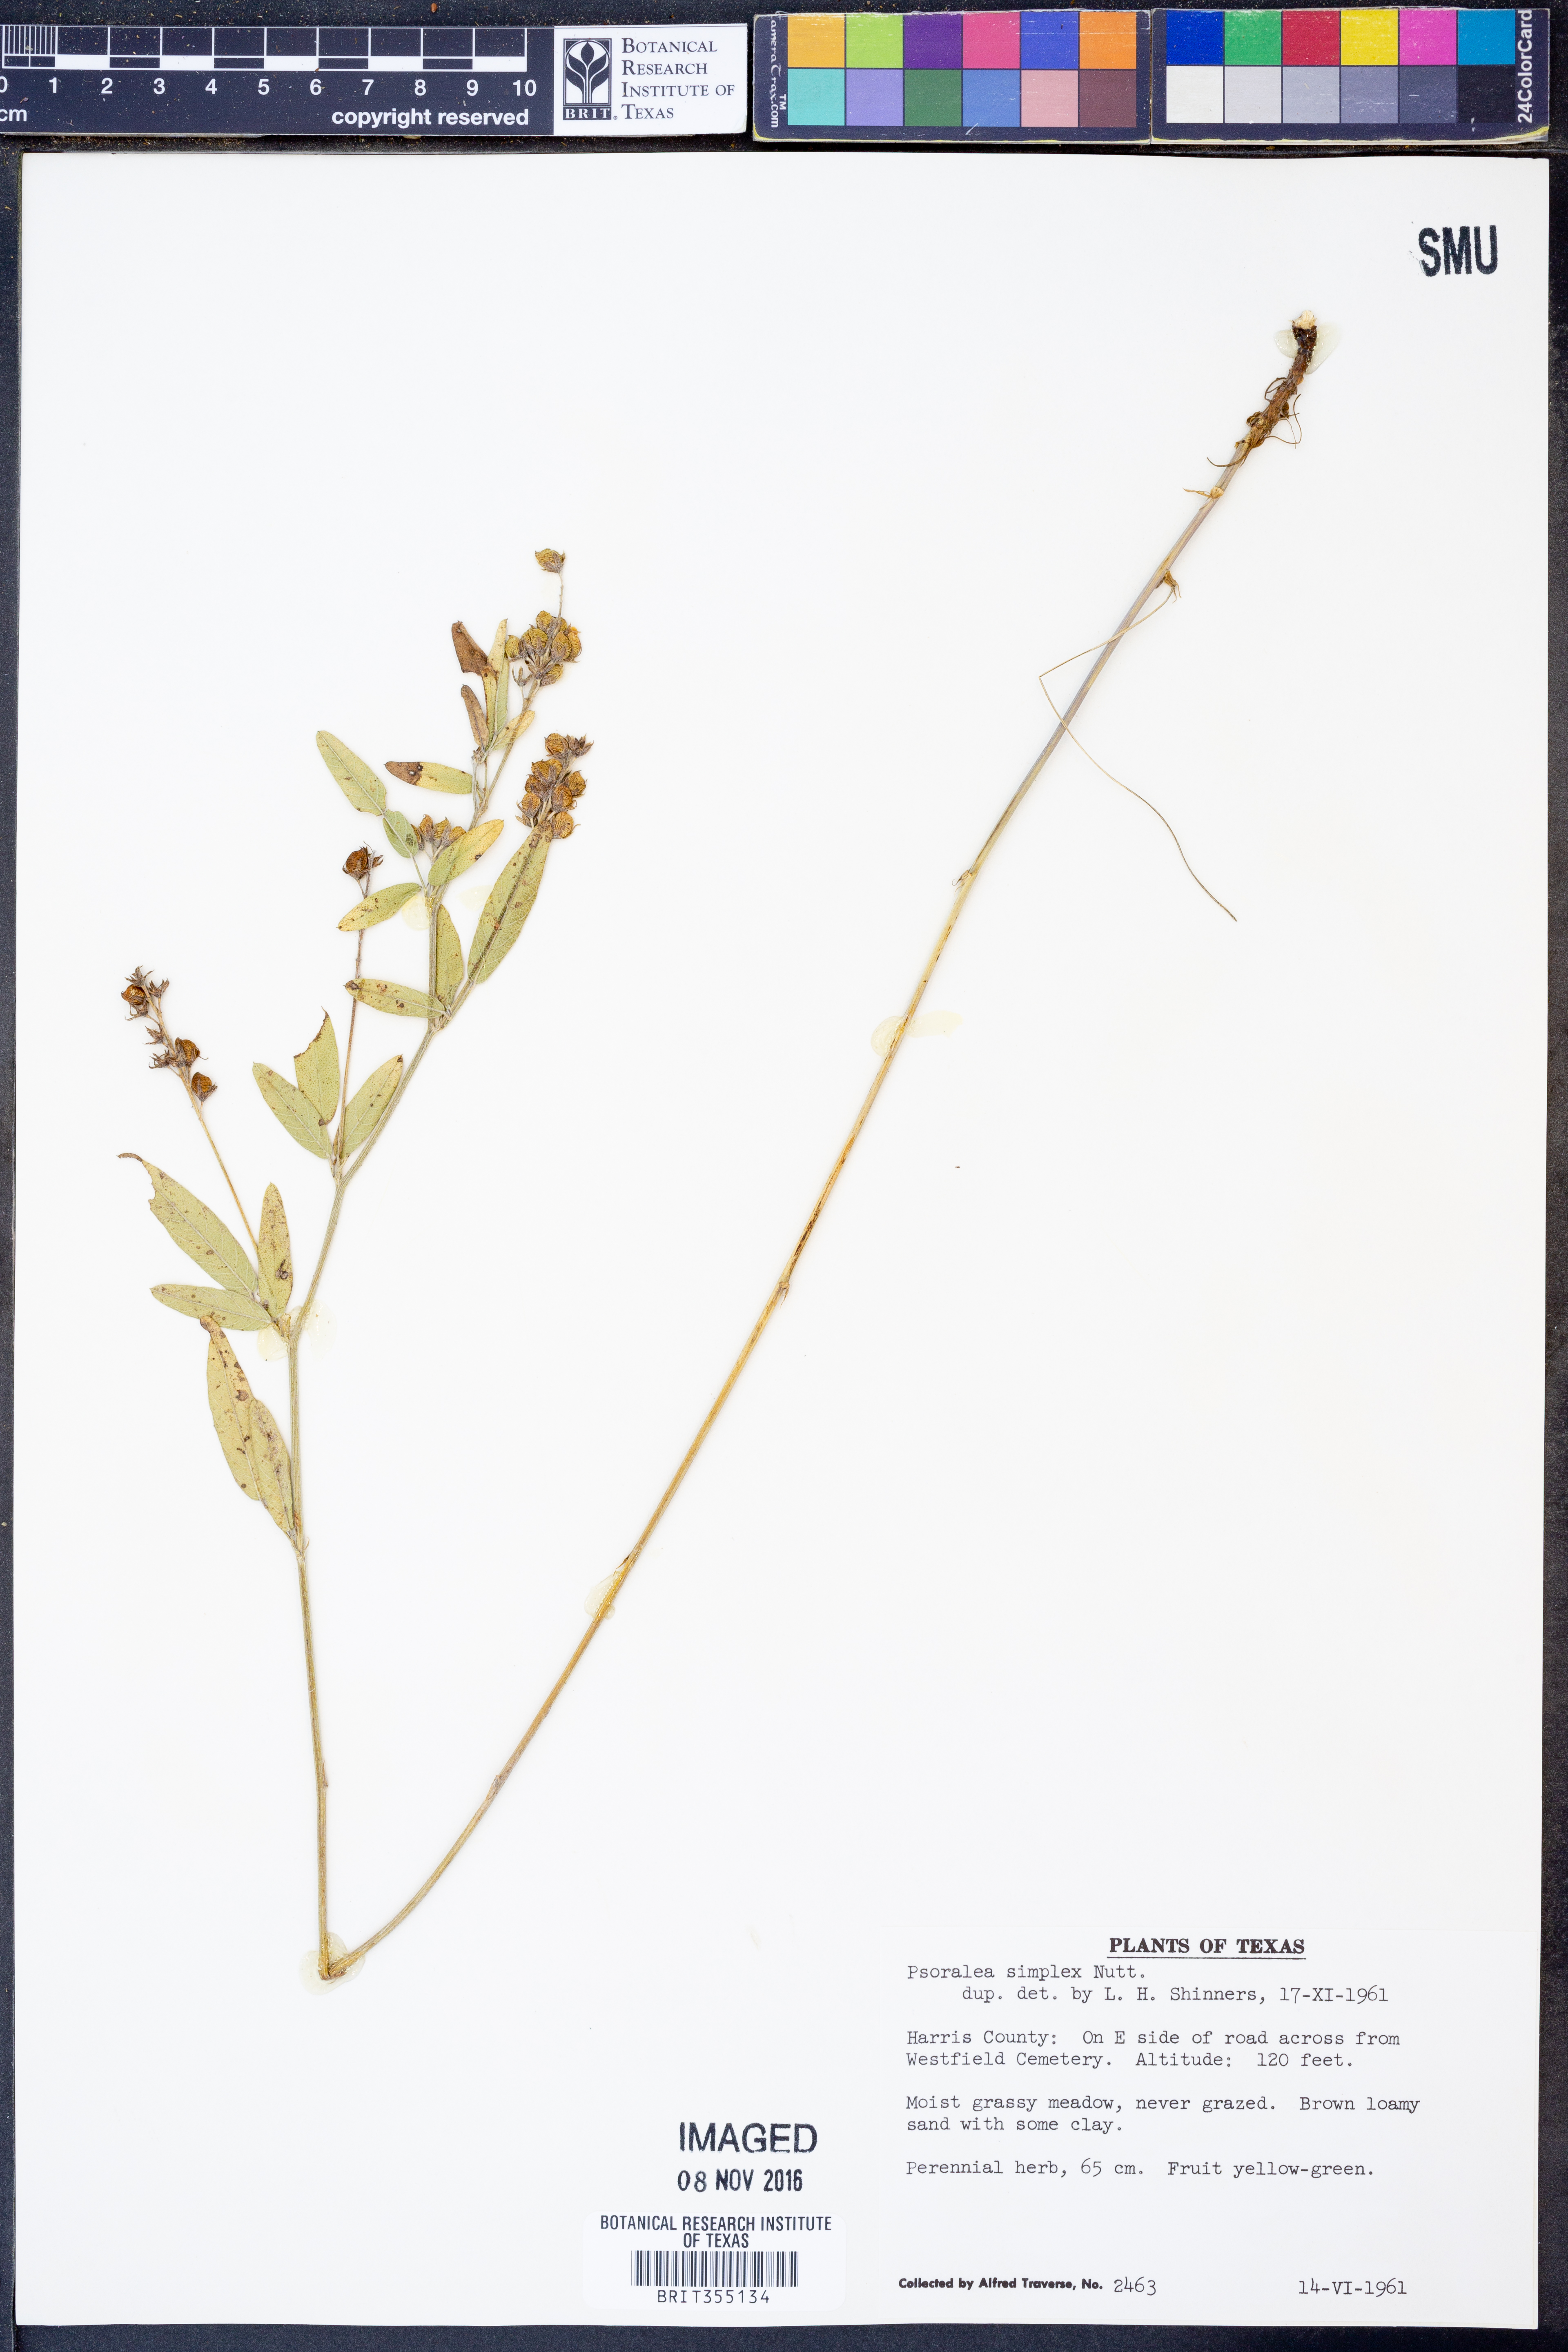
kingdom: Plantae
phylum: Tracheophyta
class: Magnoliopsida
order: Fabales
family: Fabaceae
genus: Orbexilum
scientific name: Orbexilum simplex
